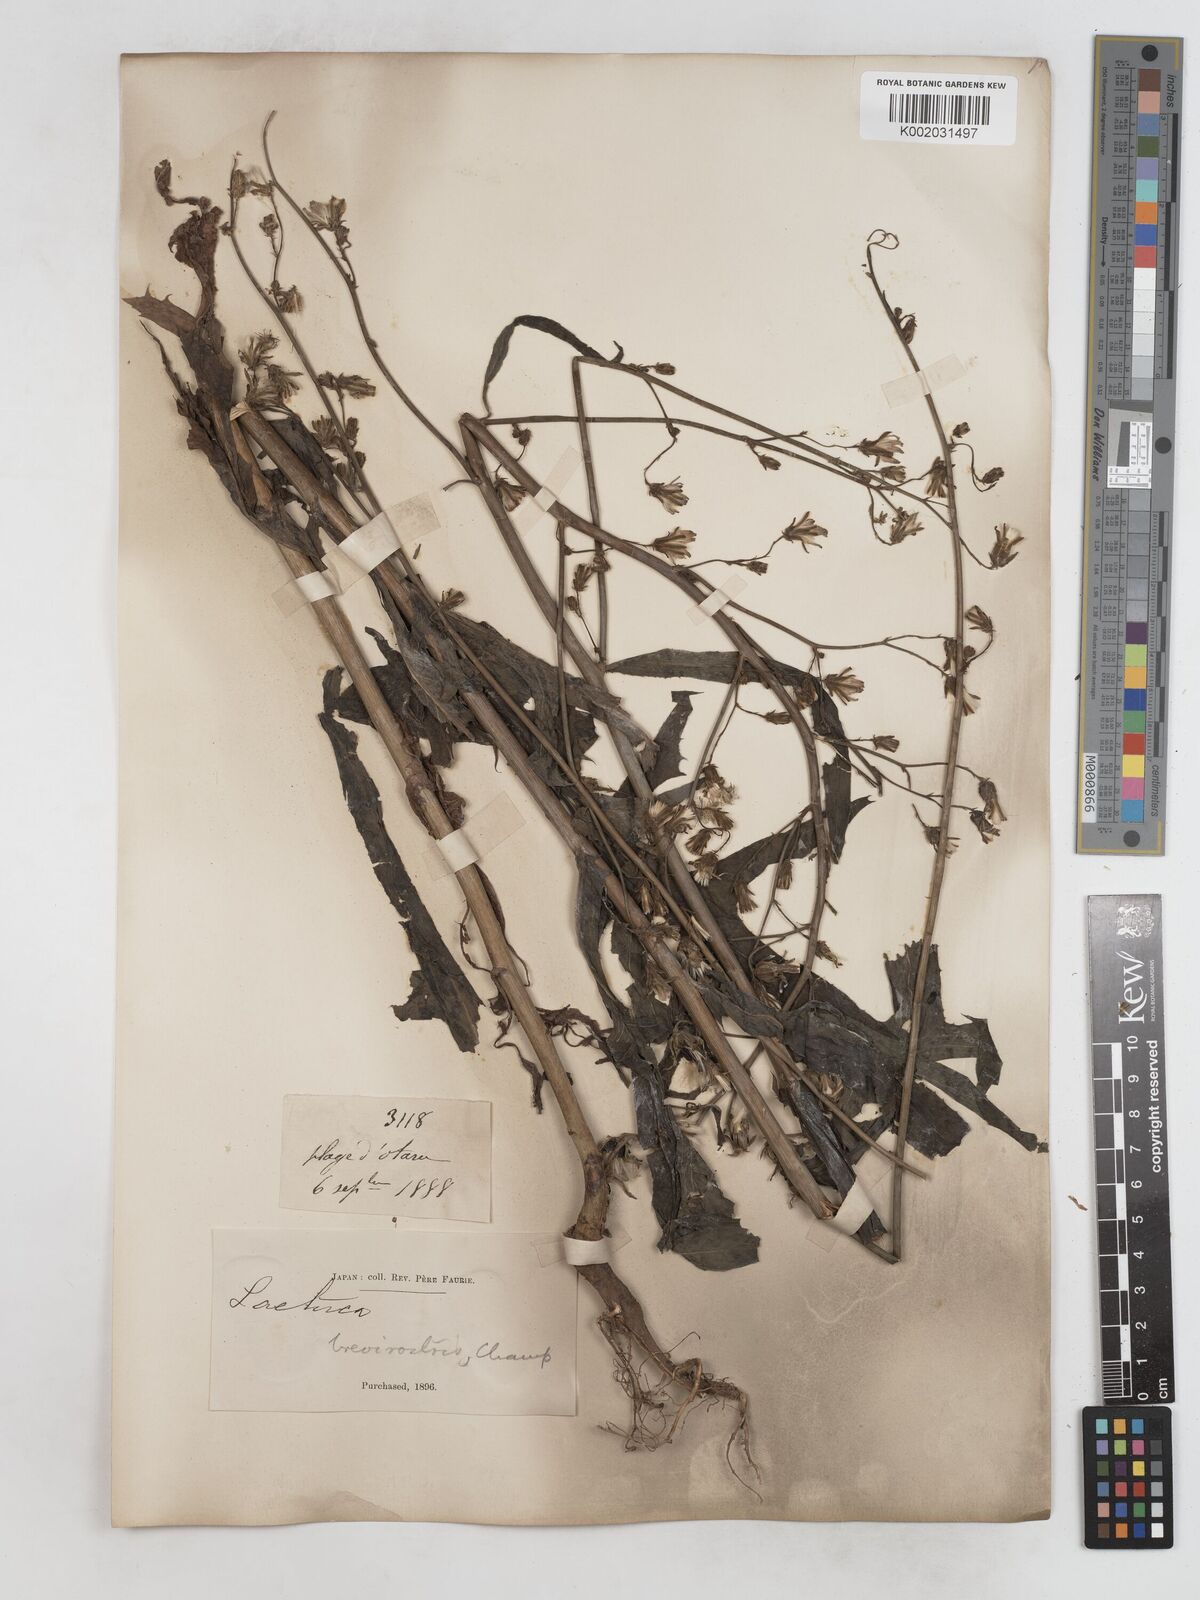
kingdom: Plantae
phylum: Tracheophyta
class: Magnoliopsida
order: Asterales
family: Asteraceae
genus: Lactuca
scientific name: Lactuca
